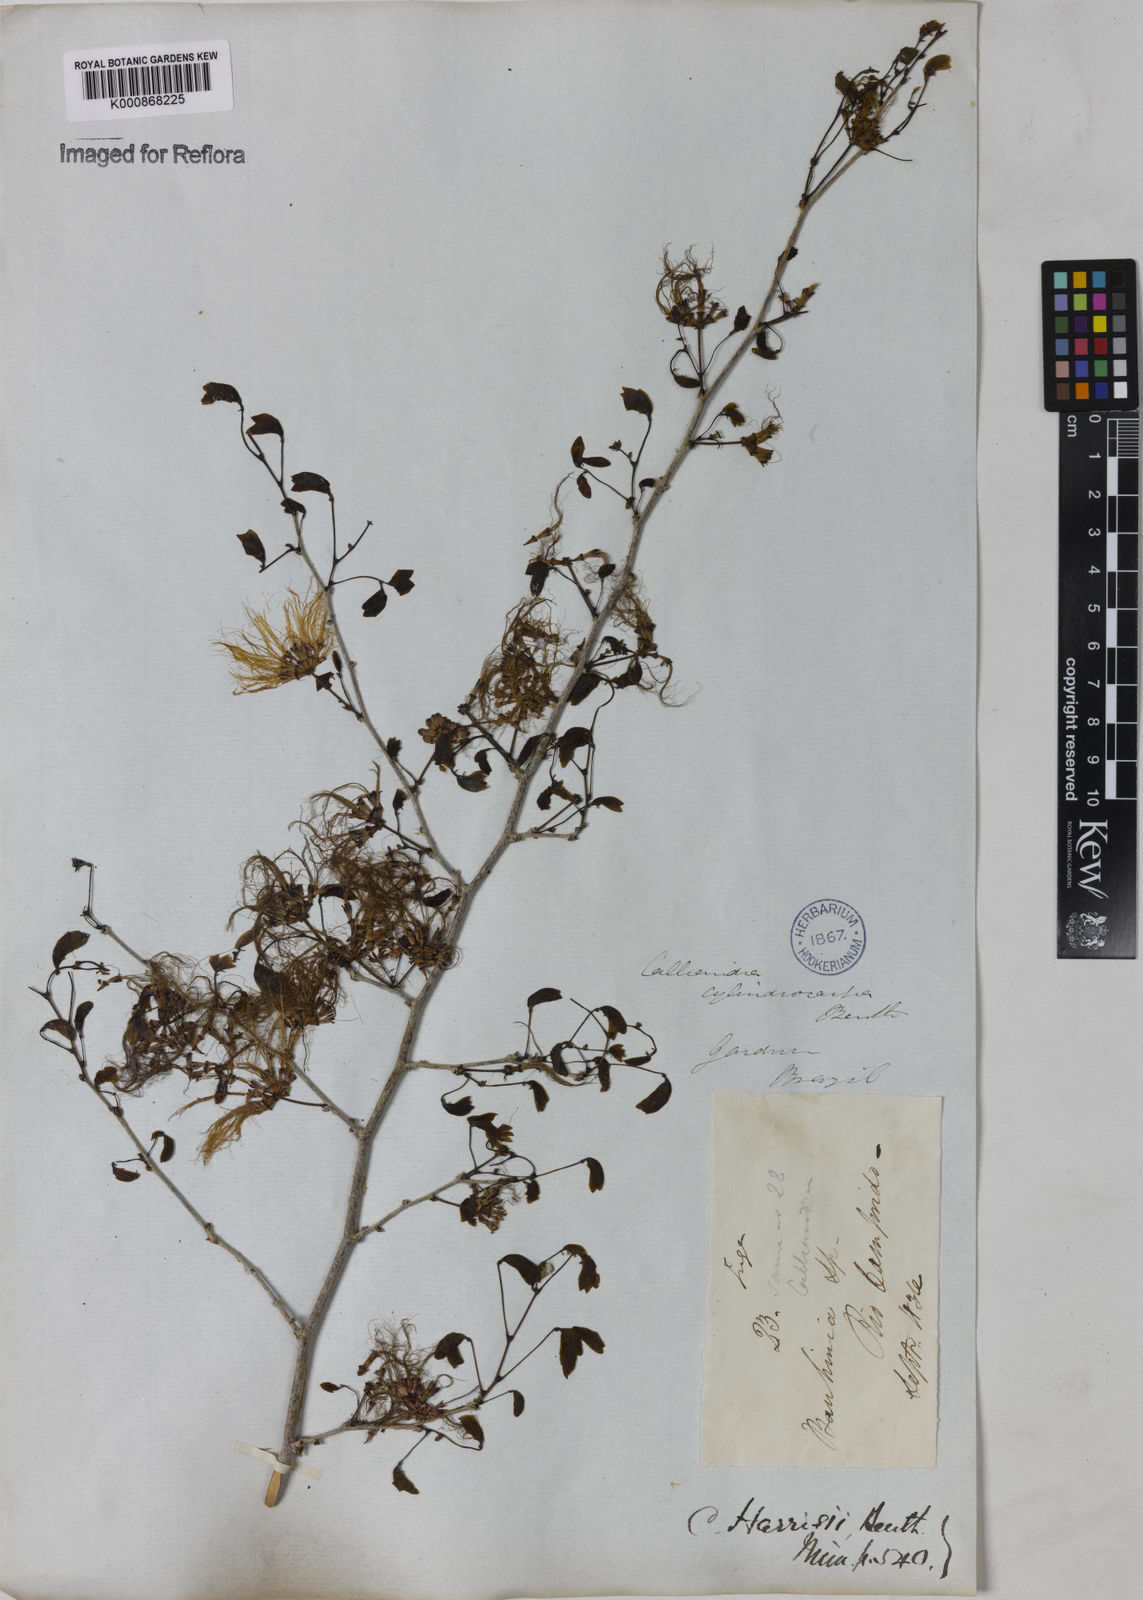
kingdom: Plantae
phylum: Tracheophyta
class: Magnoliopsida
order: Fabales
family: Fabaceae
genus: Calliandra
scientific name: Calliandra harrisii
